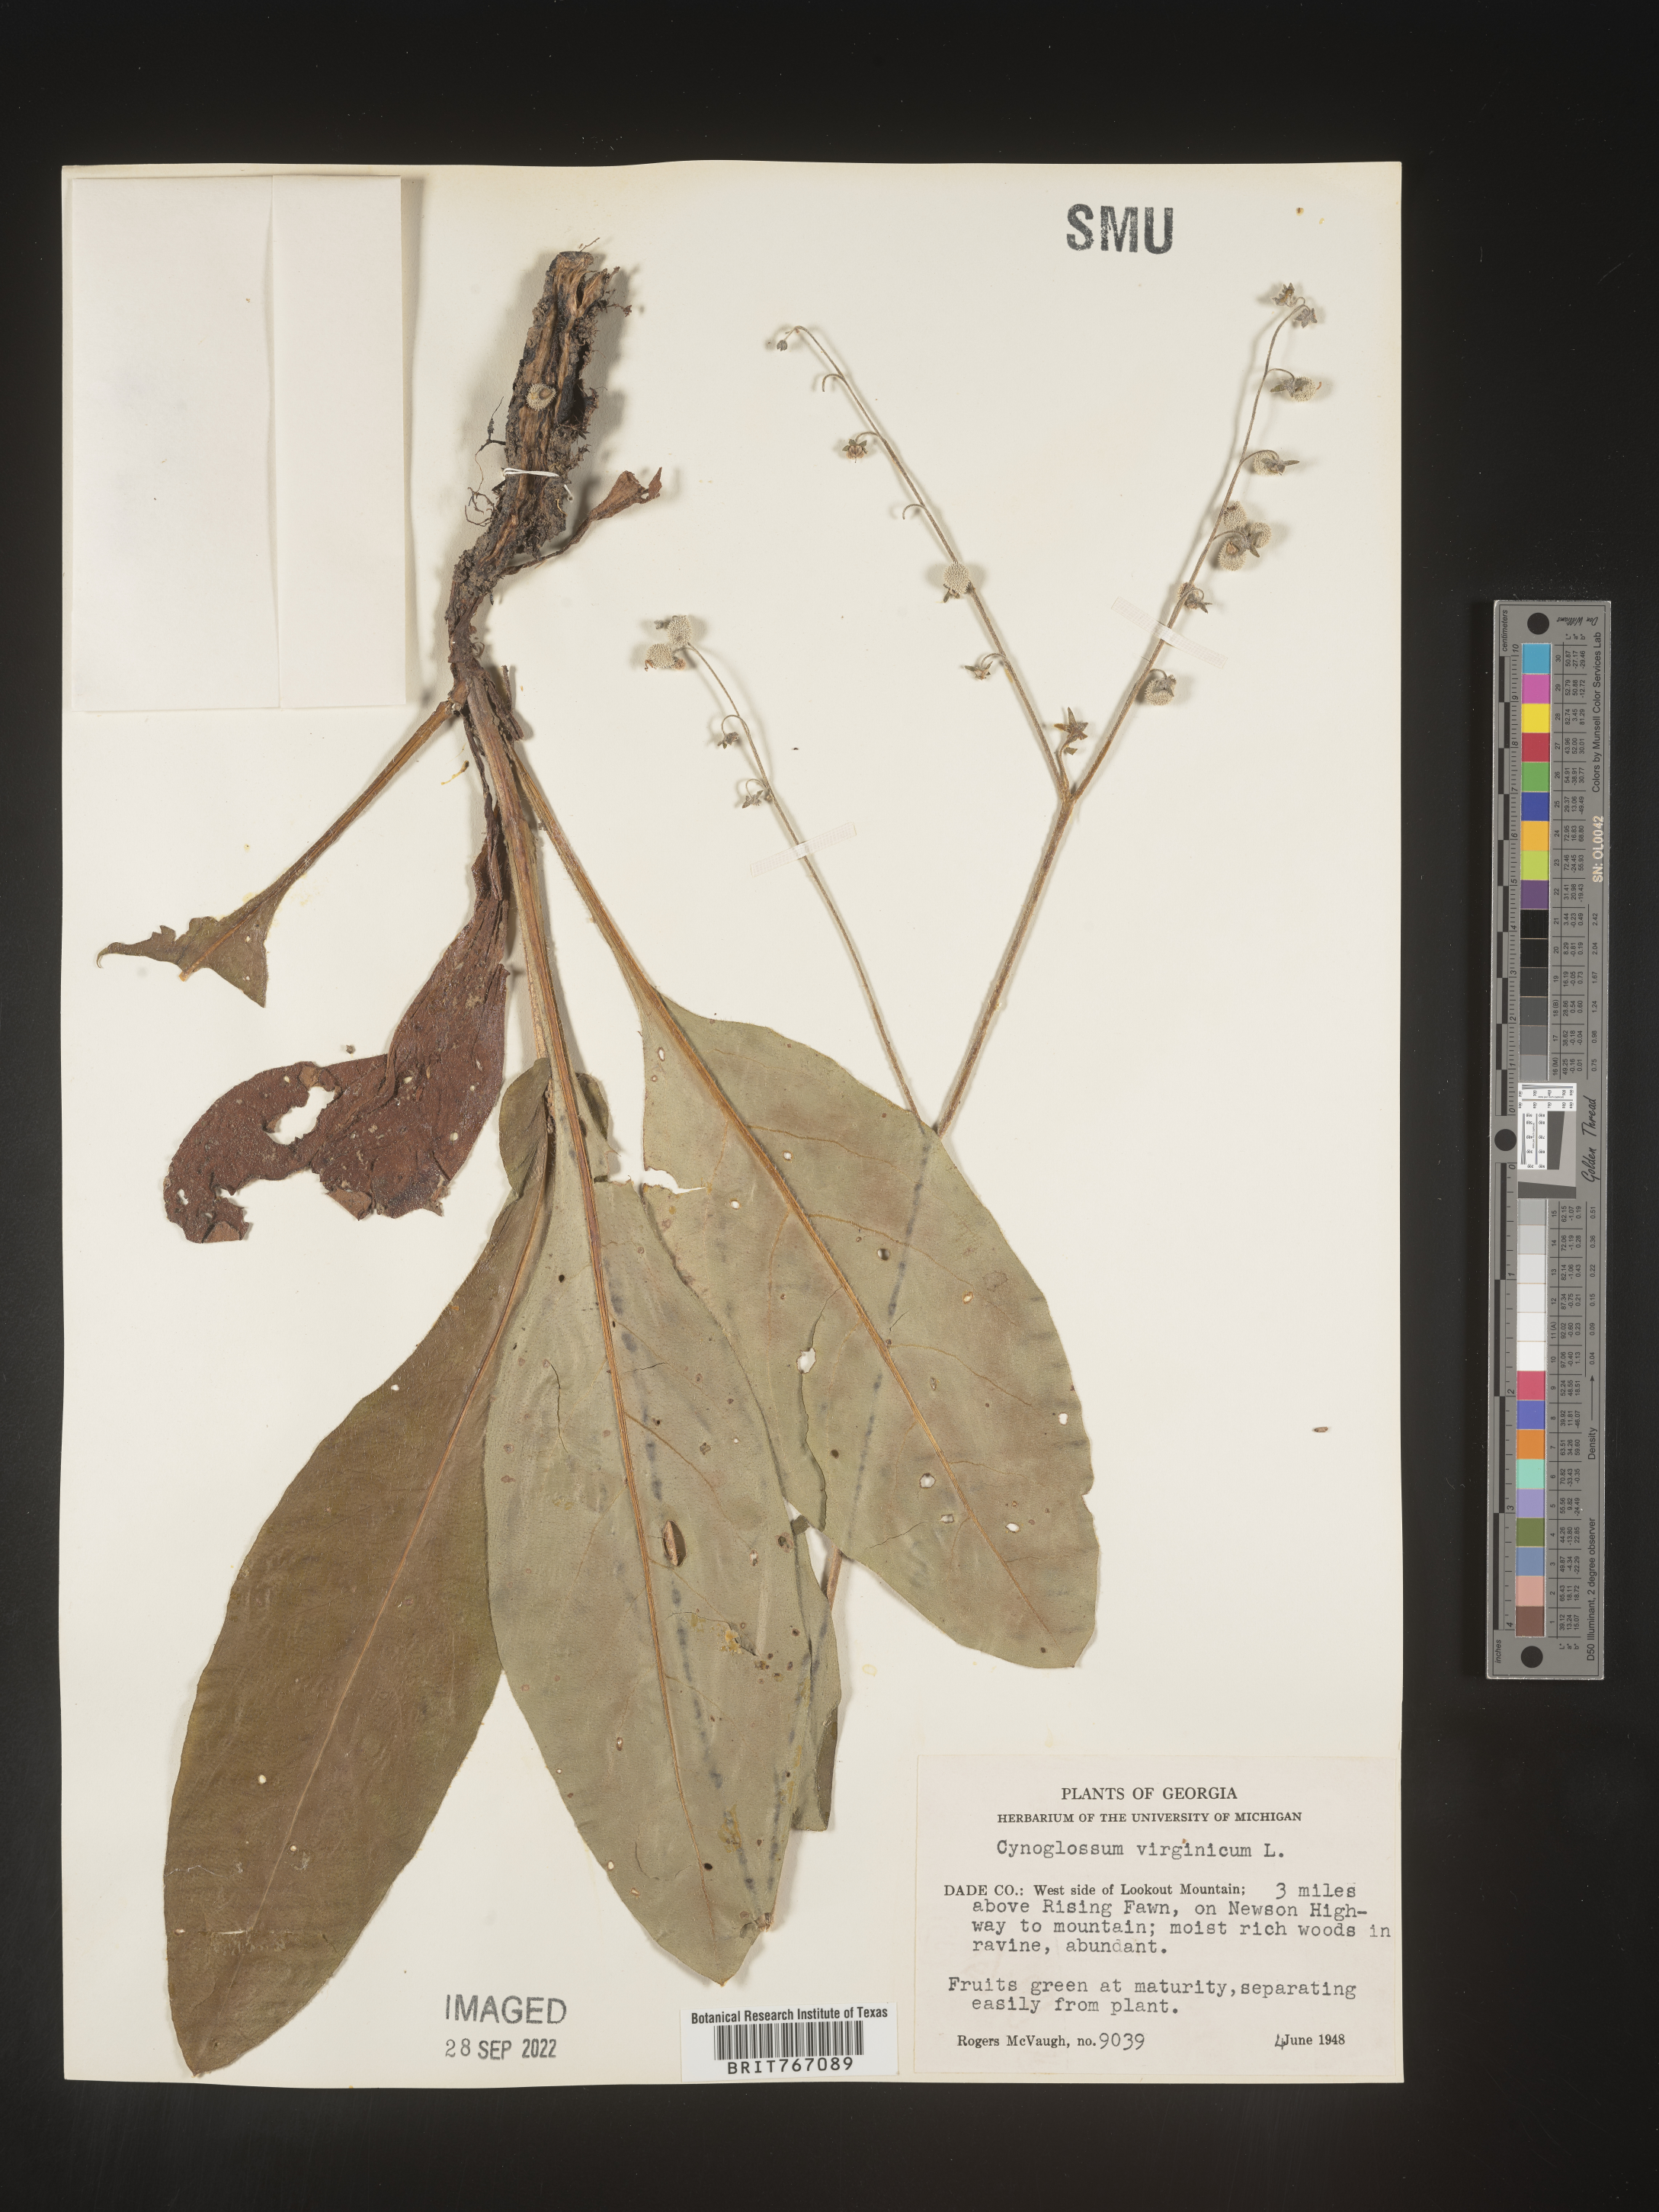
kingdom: Plantae
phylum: Tracheophyta
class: Magnoliopsida
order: Boraginales
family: Boraginaceae
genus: Andersonglossum
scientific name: Andersonglossum virginianum
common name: Wild comfrey
